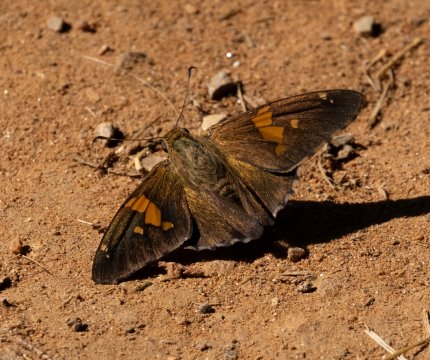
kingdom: Animalia
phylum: Arthropoda
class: Insecta
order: Lepidoptera
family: Hesperiidae
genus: Epargyreus
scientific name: Epargyreus clarus
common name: Silver-spotted Skipper
